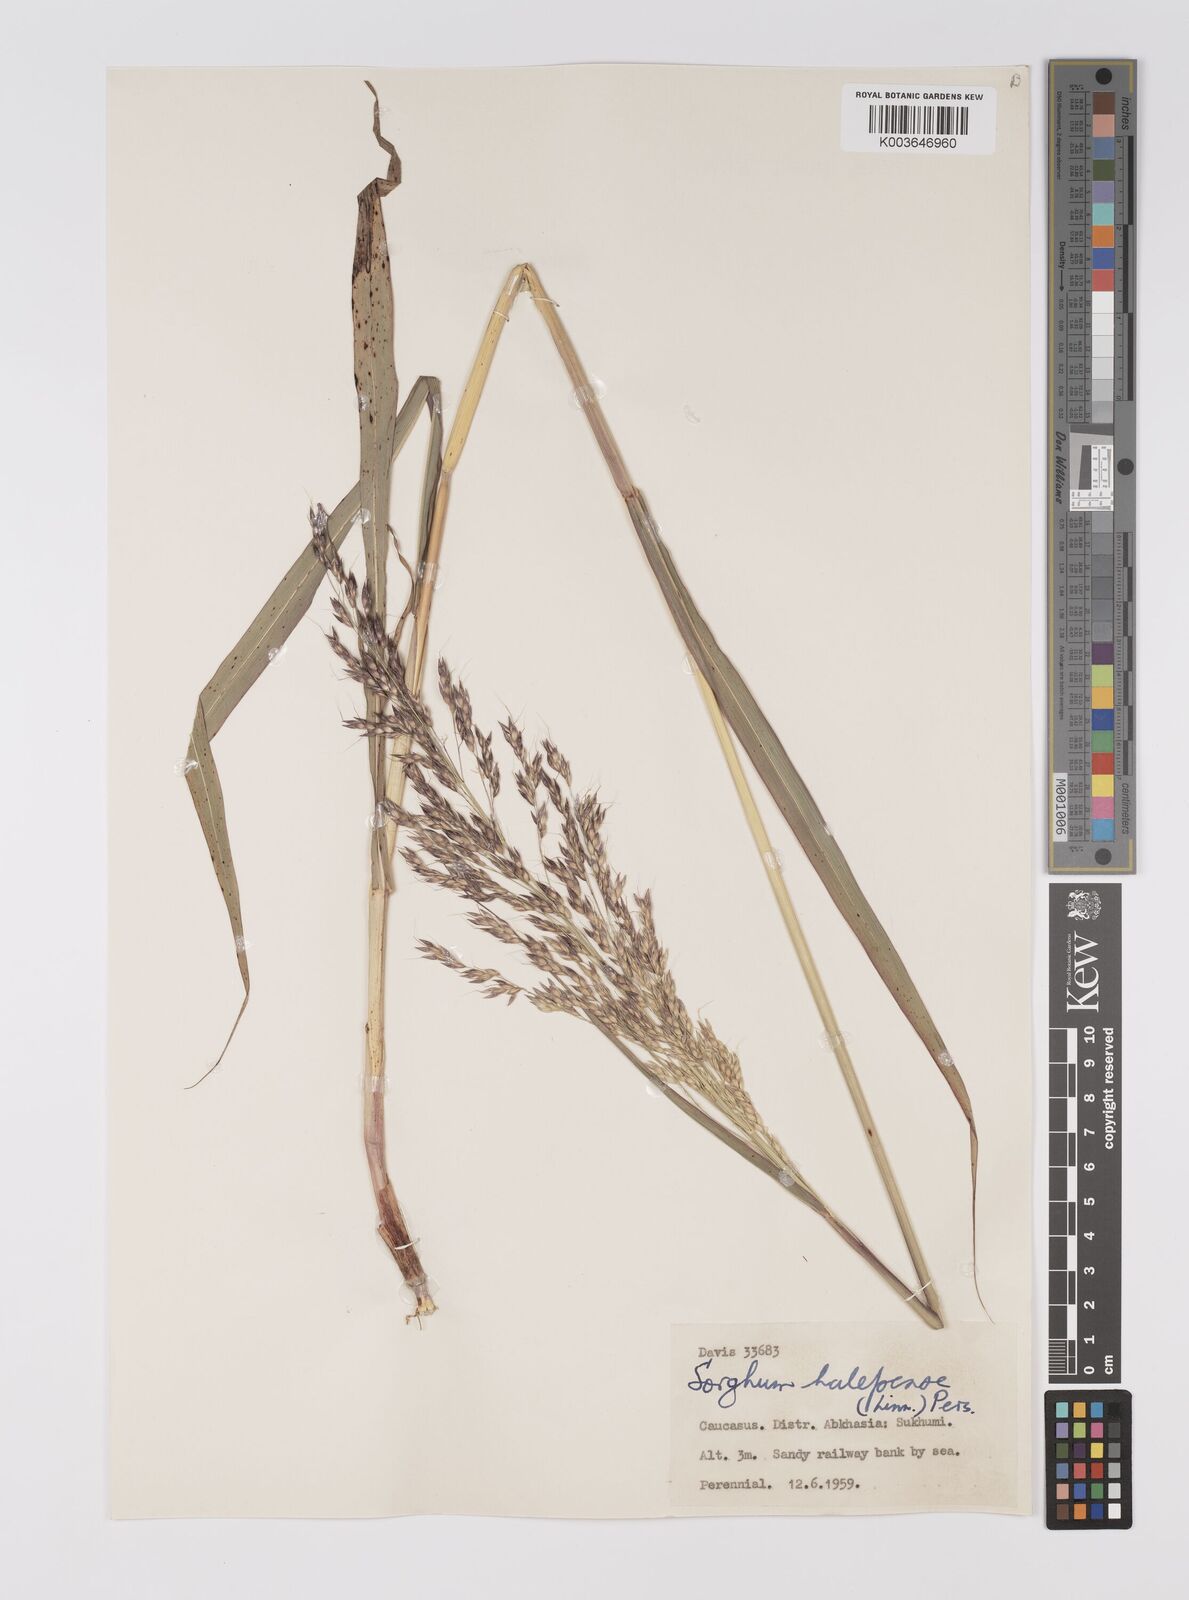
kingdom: Plantae
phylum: Tracheophyta
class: Liliopsida
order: Poales
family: Poaceae
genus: Sorghum
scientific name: Sorghum halepense
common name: Johnson-grass
